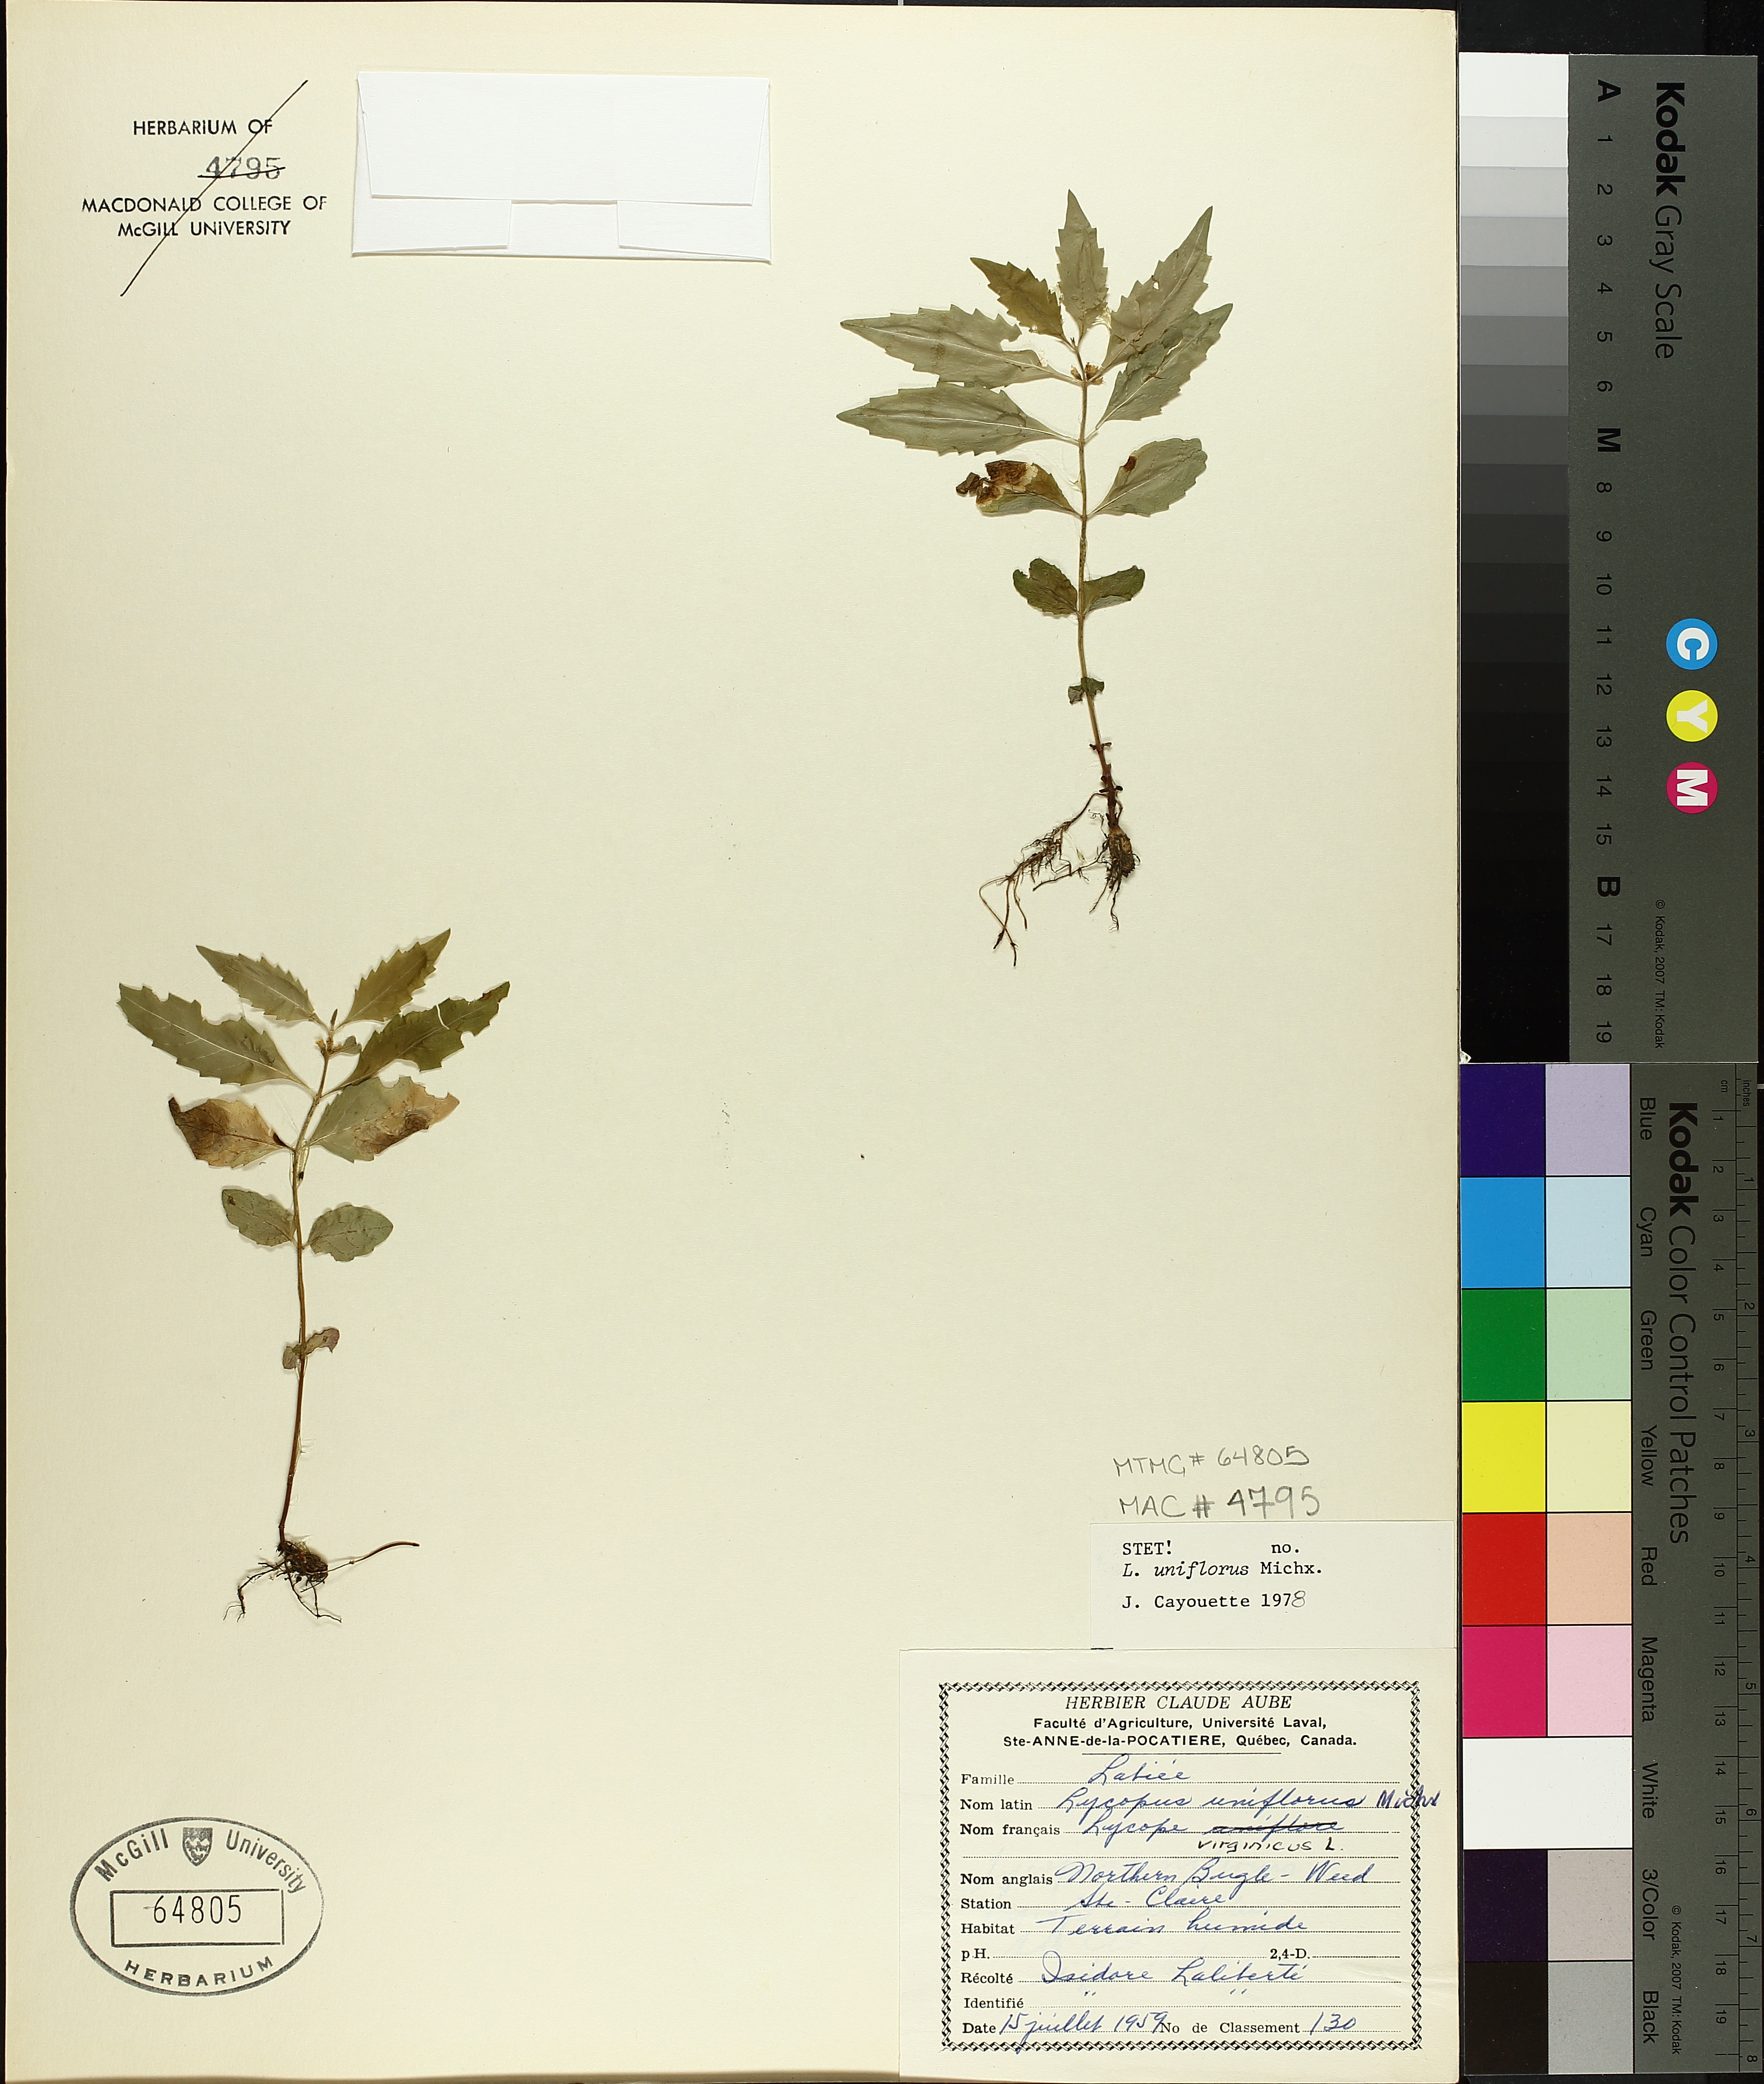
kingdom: Plantae
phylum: Tracheophyta
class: Magnoliopsida
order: Lamiales
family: Lamiaceae
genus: Lycopus
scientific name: Lycopus uniflorus
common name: Northern bugleweed
